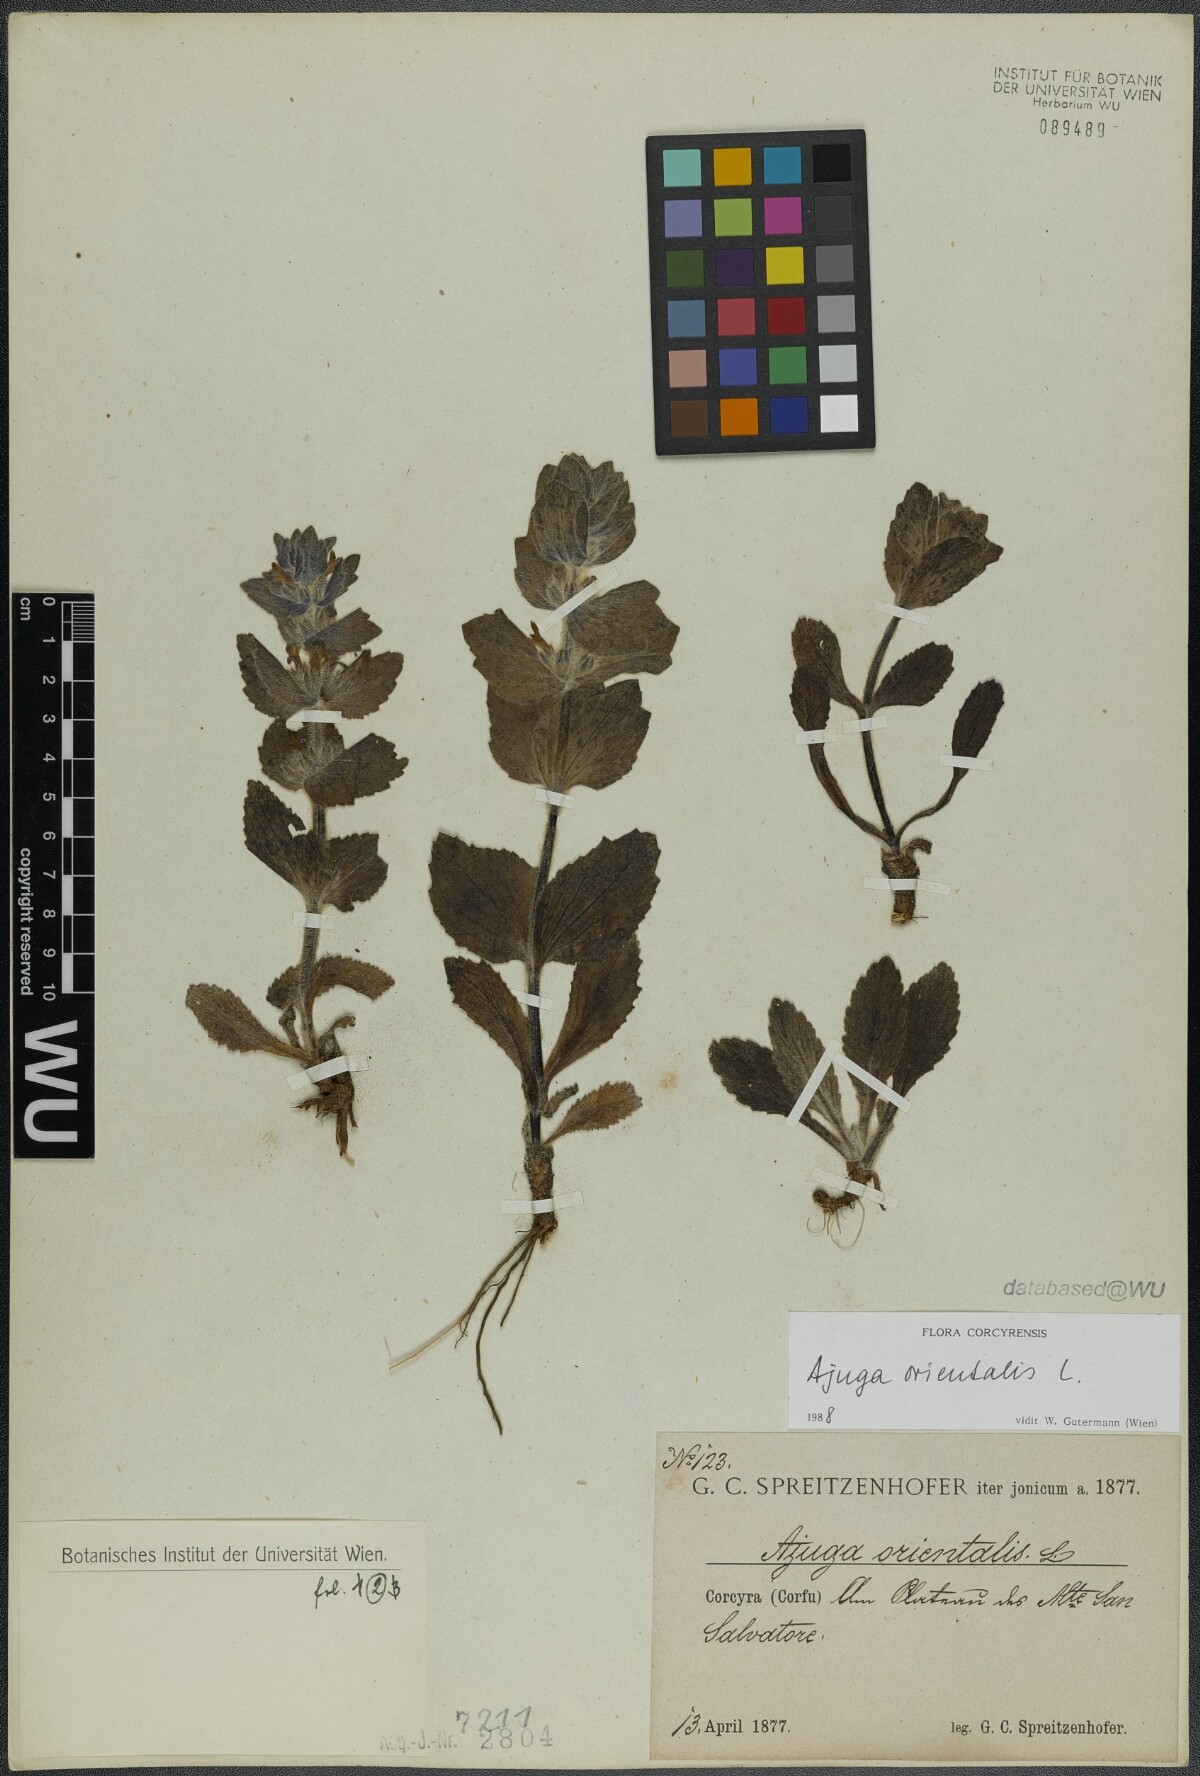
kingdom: Plantae
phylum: Tracheophyta
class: Magnoliopsida
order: Lamiales
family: Lamiaceae
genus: Ajuga
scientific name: Ajuga orientalis
